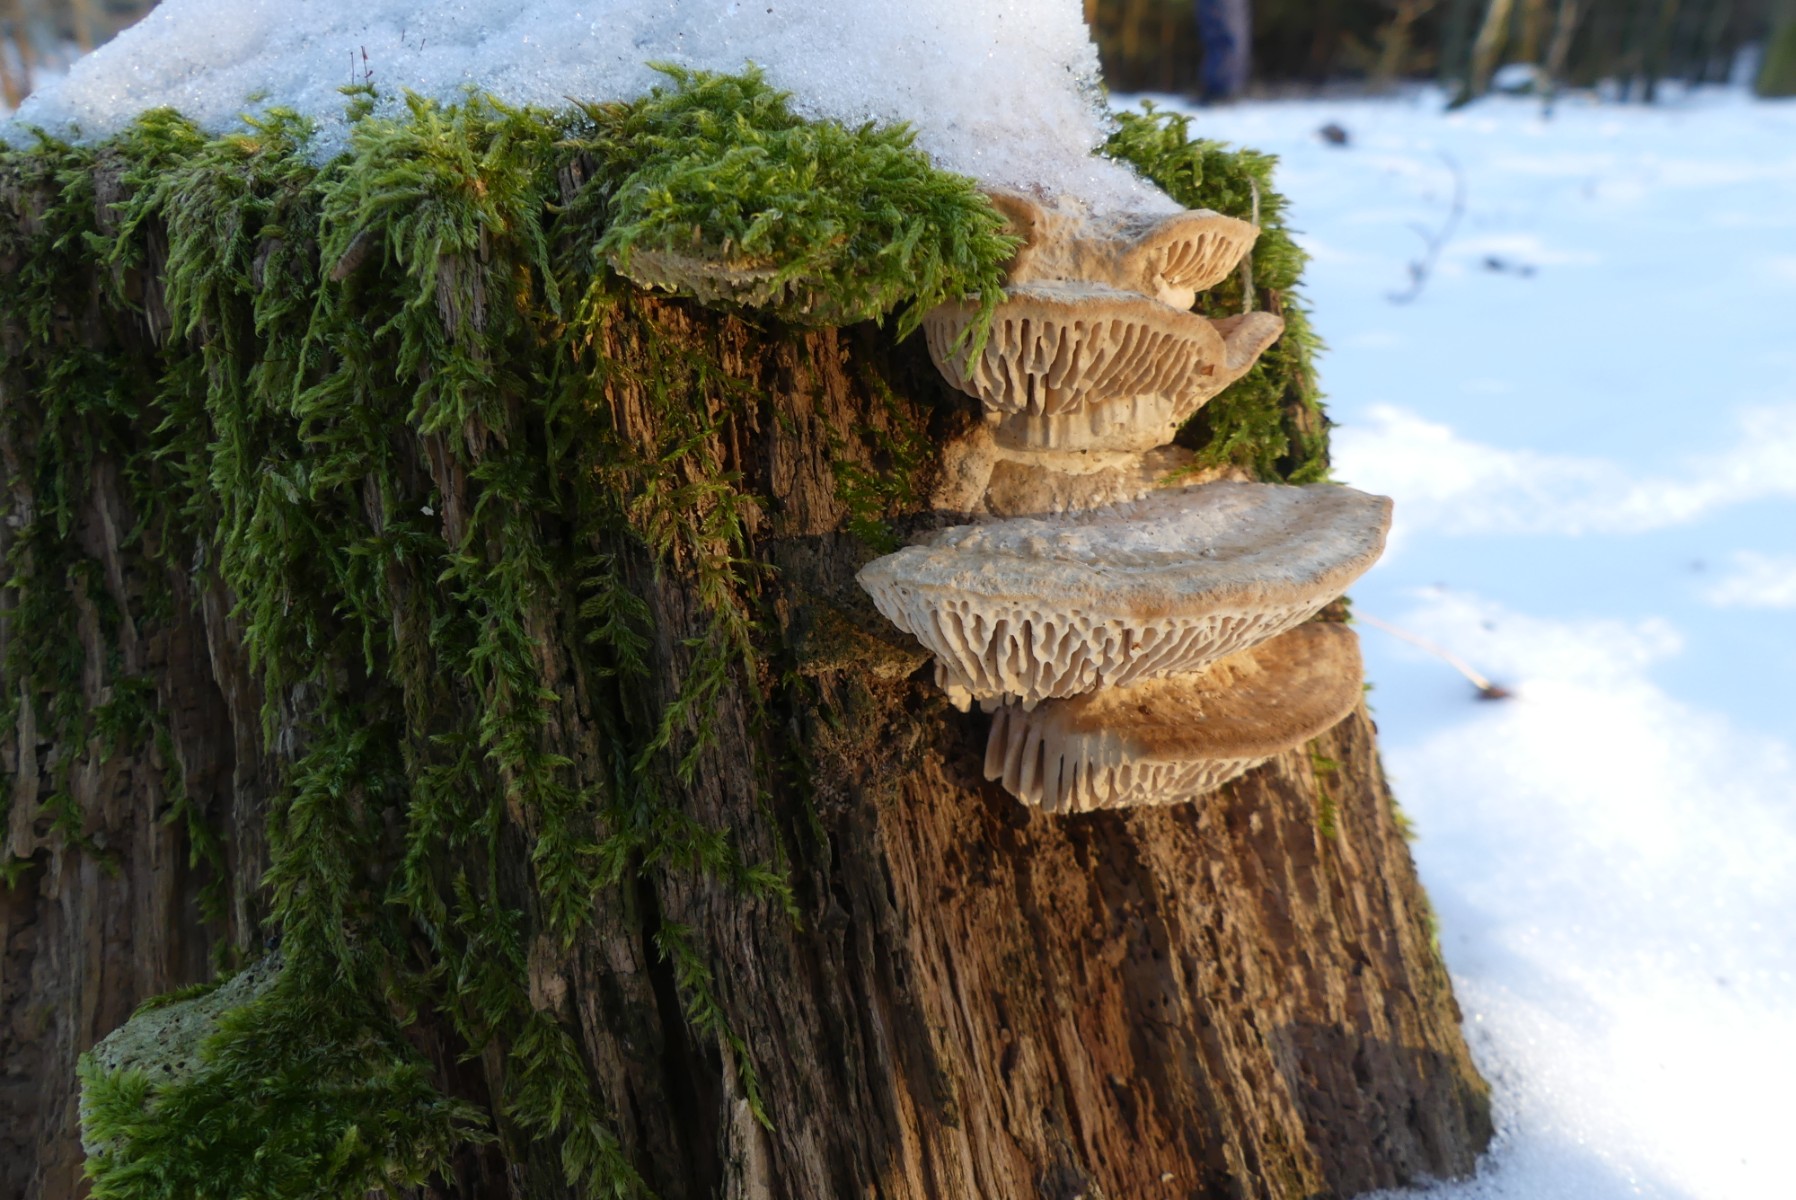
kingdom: Fungi
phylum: Basidiomycota
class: Agaricomycetes
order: Polyporales
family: Fomitopsidaceae
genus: Daedalea
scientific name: Daedalea quercina
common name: ege-labyrintsvamp
